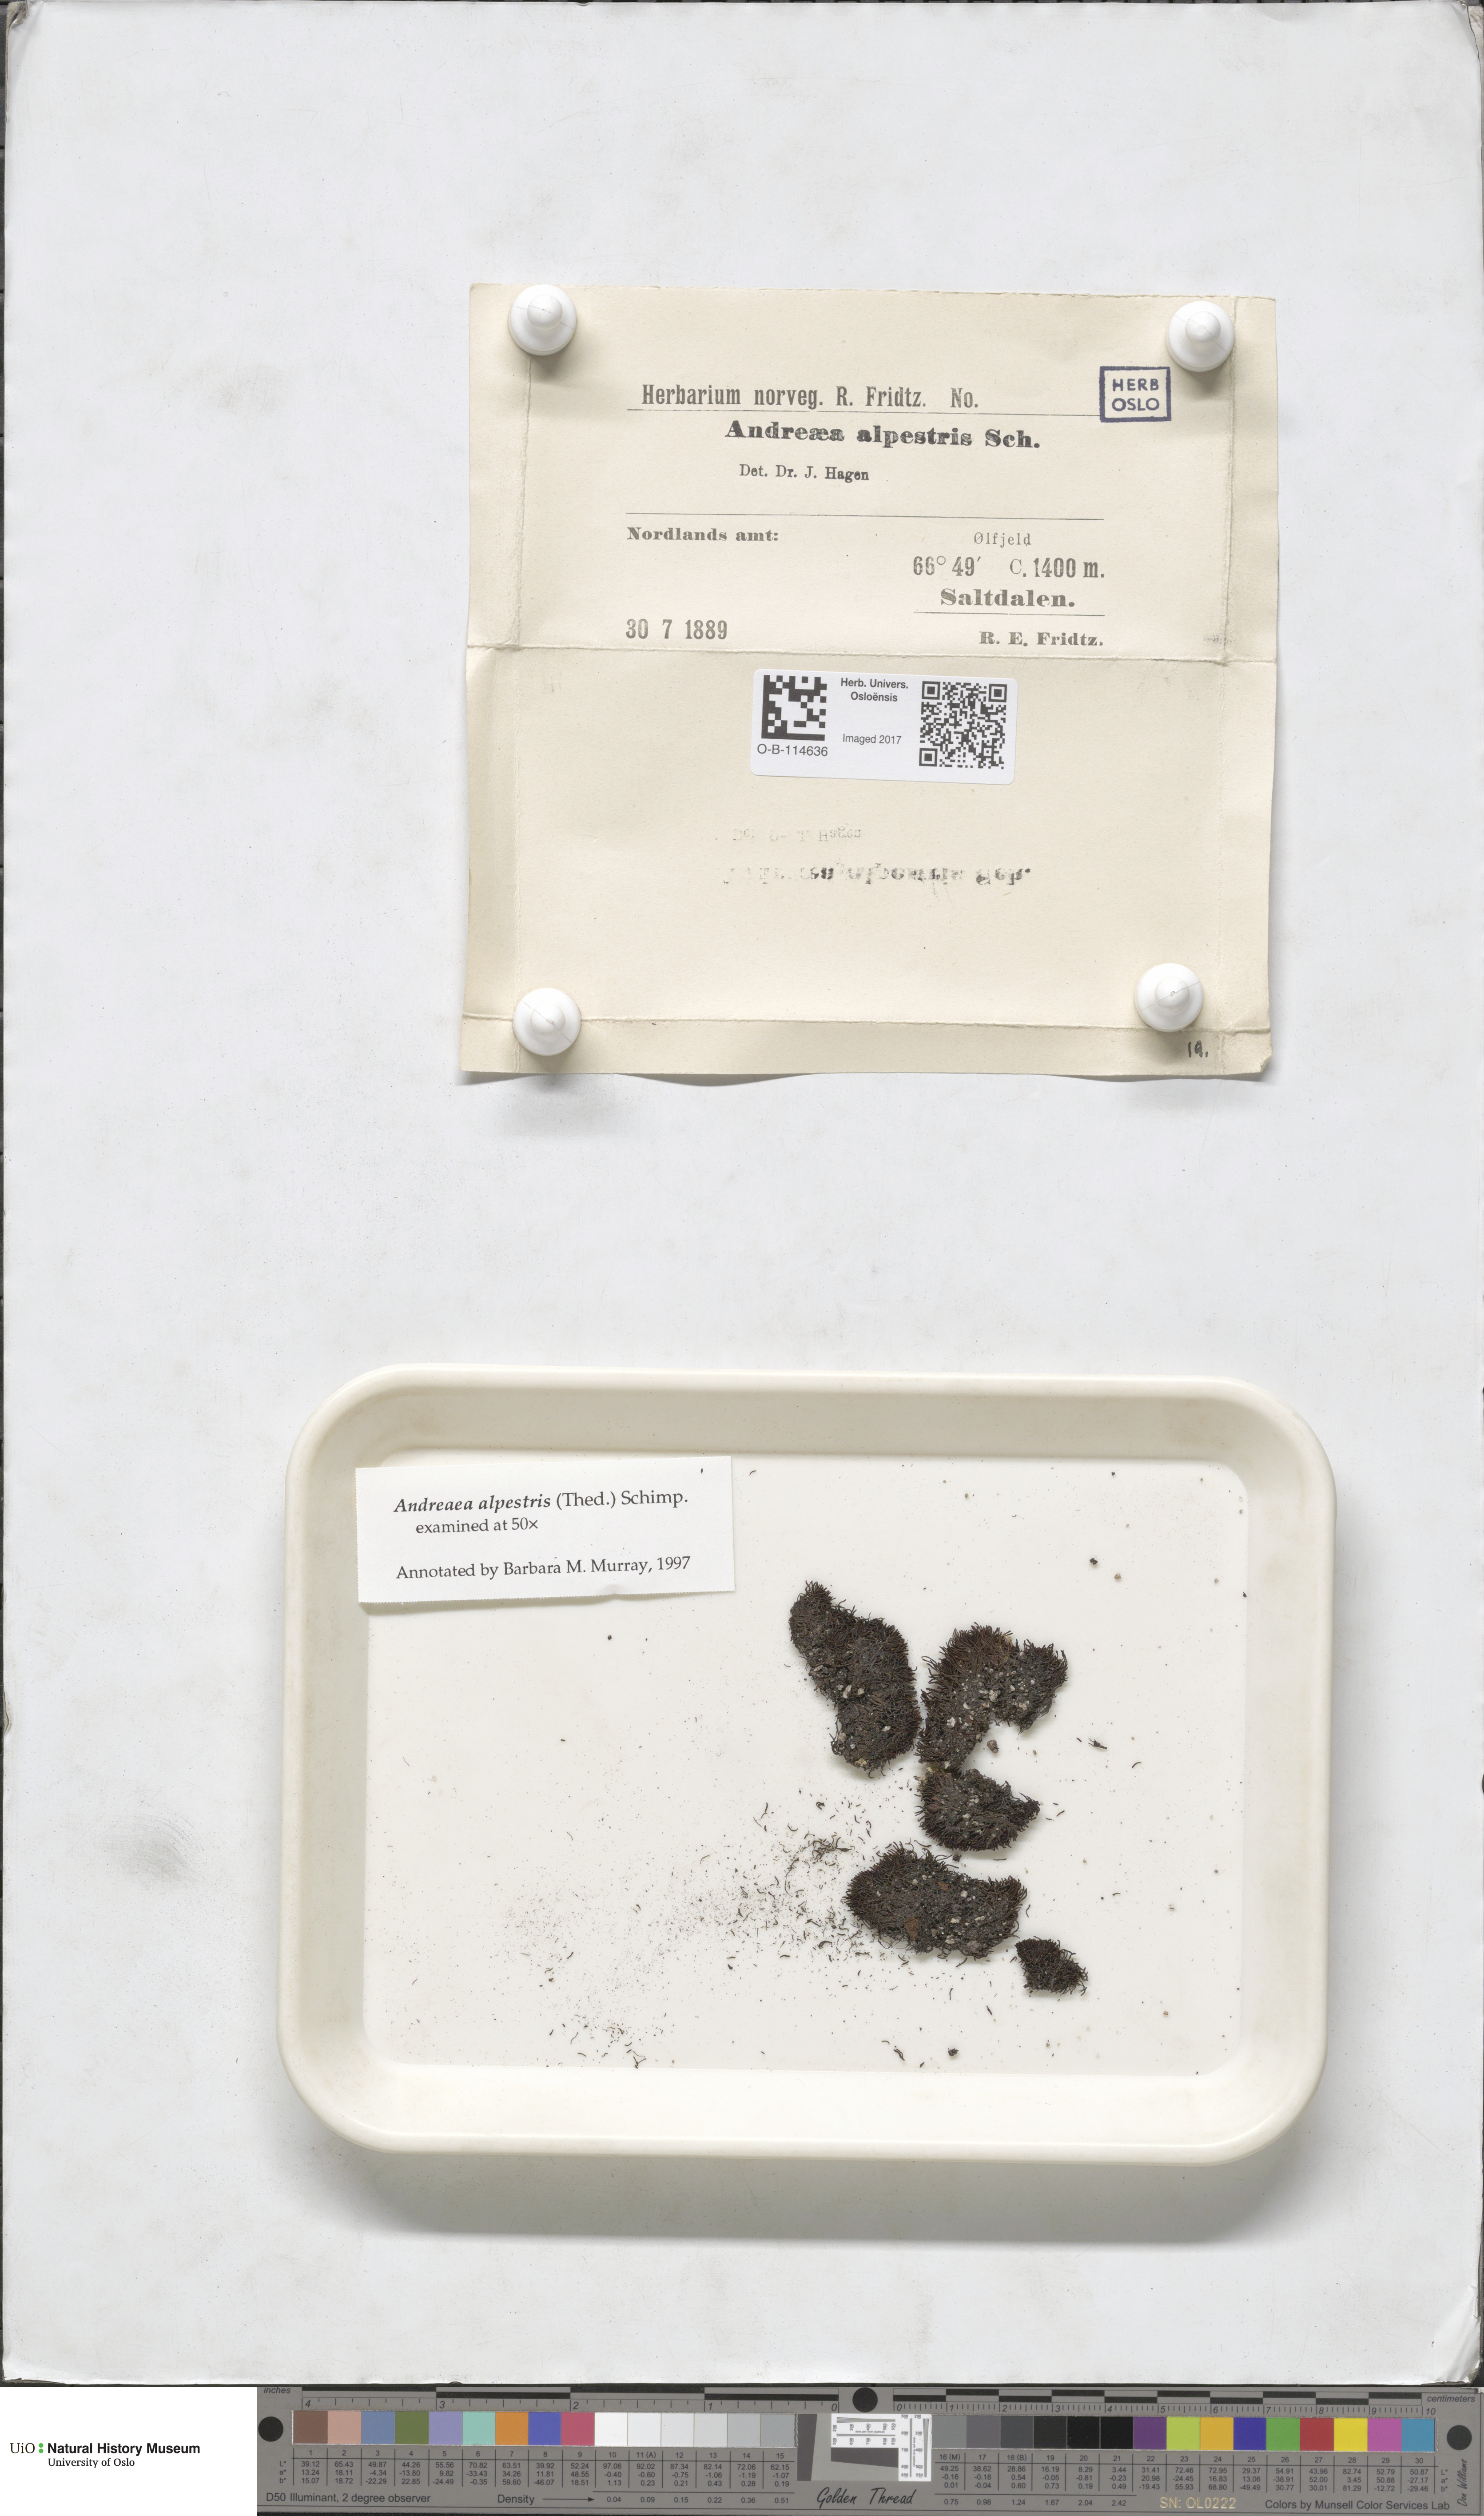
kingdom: Plantae
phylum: Bryophyta
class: Andreaeopsida
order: Andreaeales
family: Andreaeaceae
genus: Andreaea
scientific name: Andreaea alpestris
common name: Slender rock-moss
